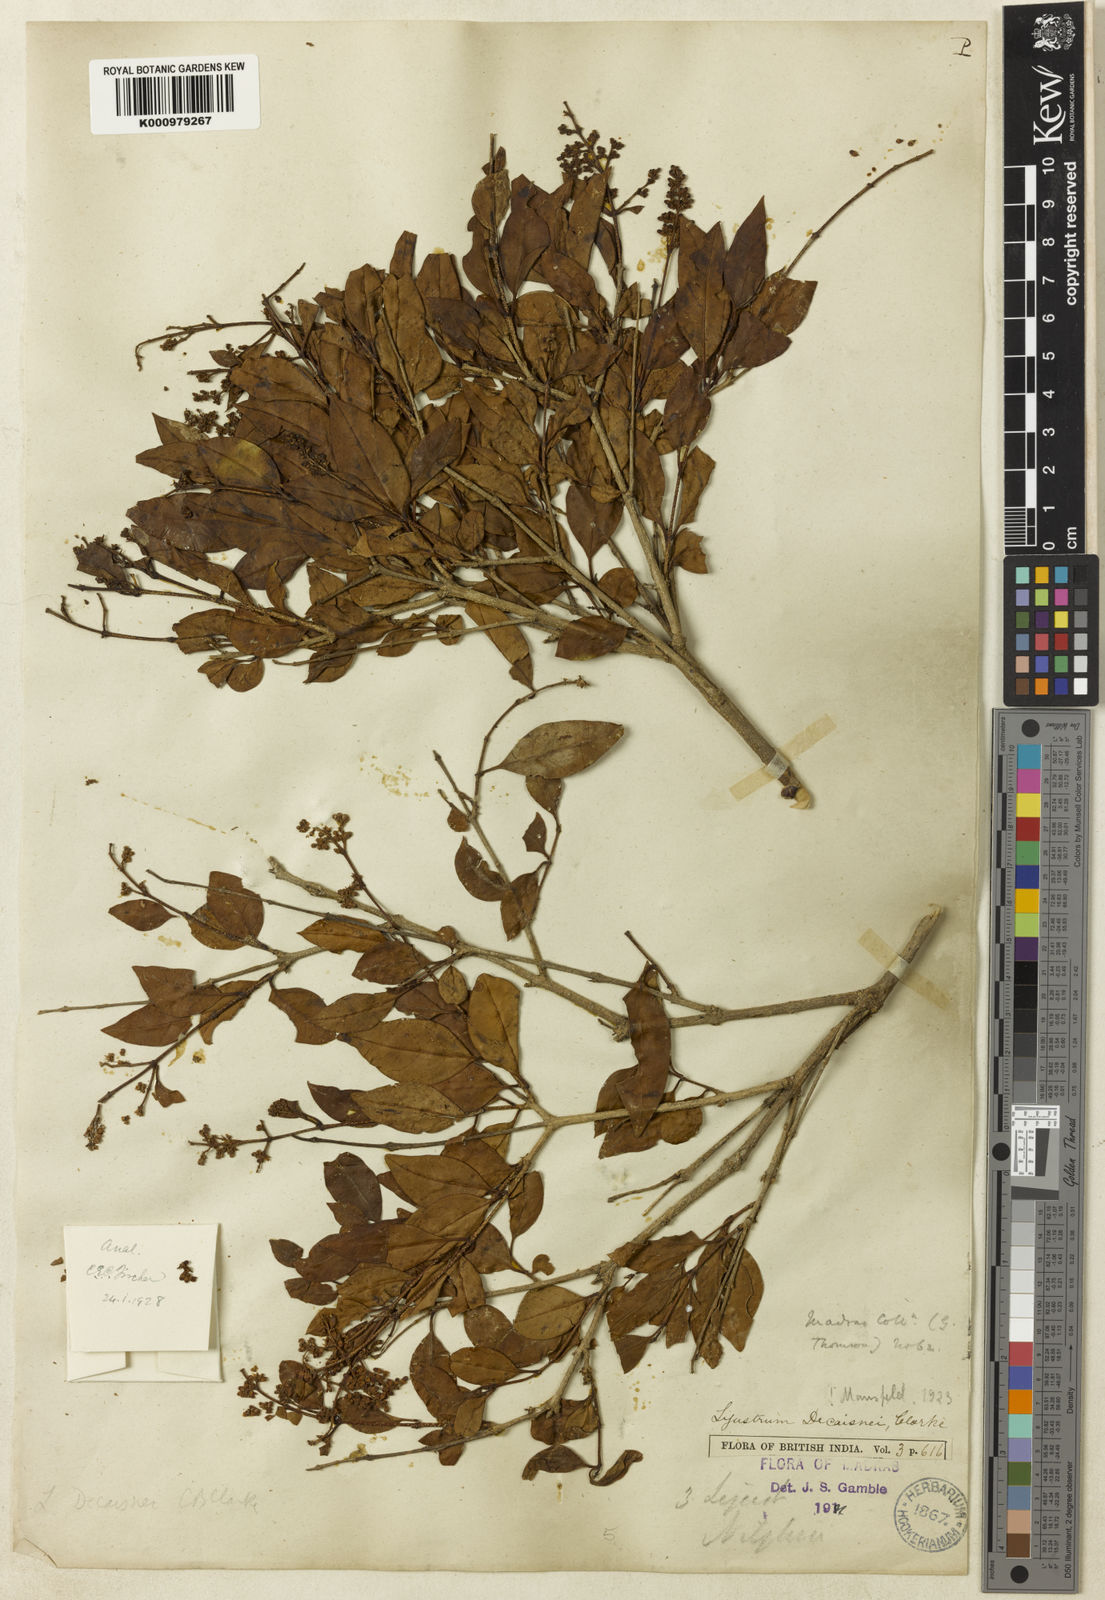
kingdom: Plantae
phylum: Tracheophyta
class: Magnoliopsida
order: Lamiales
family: Oleaceae
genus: Ligustrum
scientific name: Ligustrum robustum
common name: Tree privet
